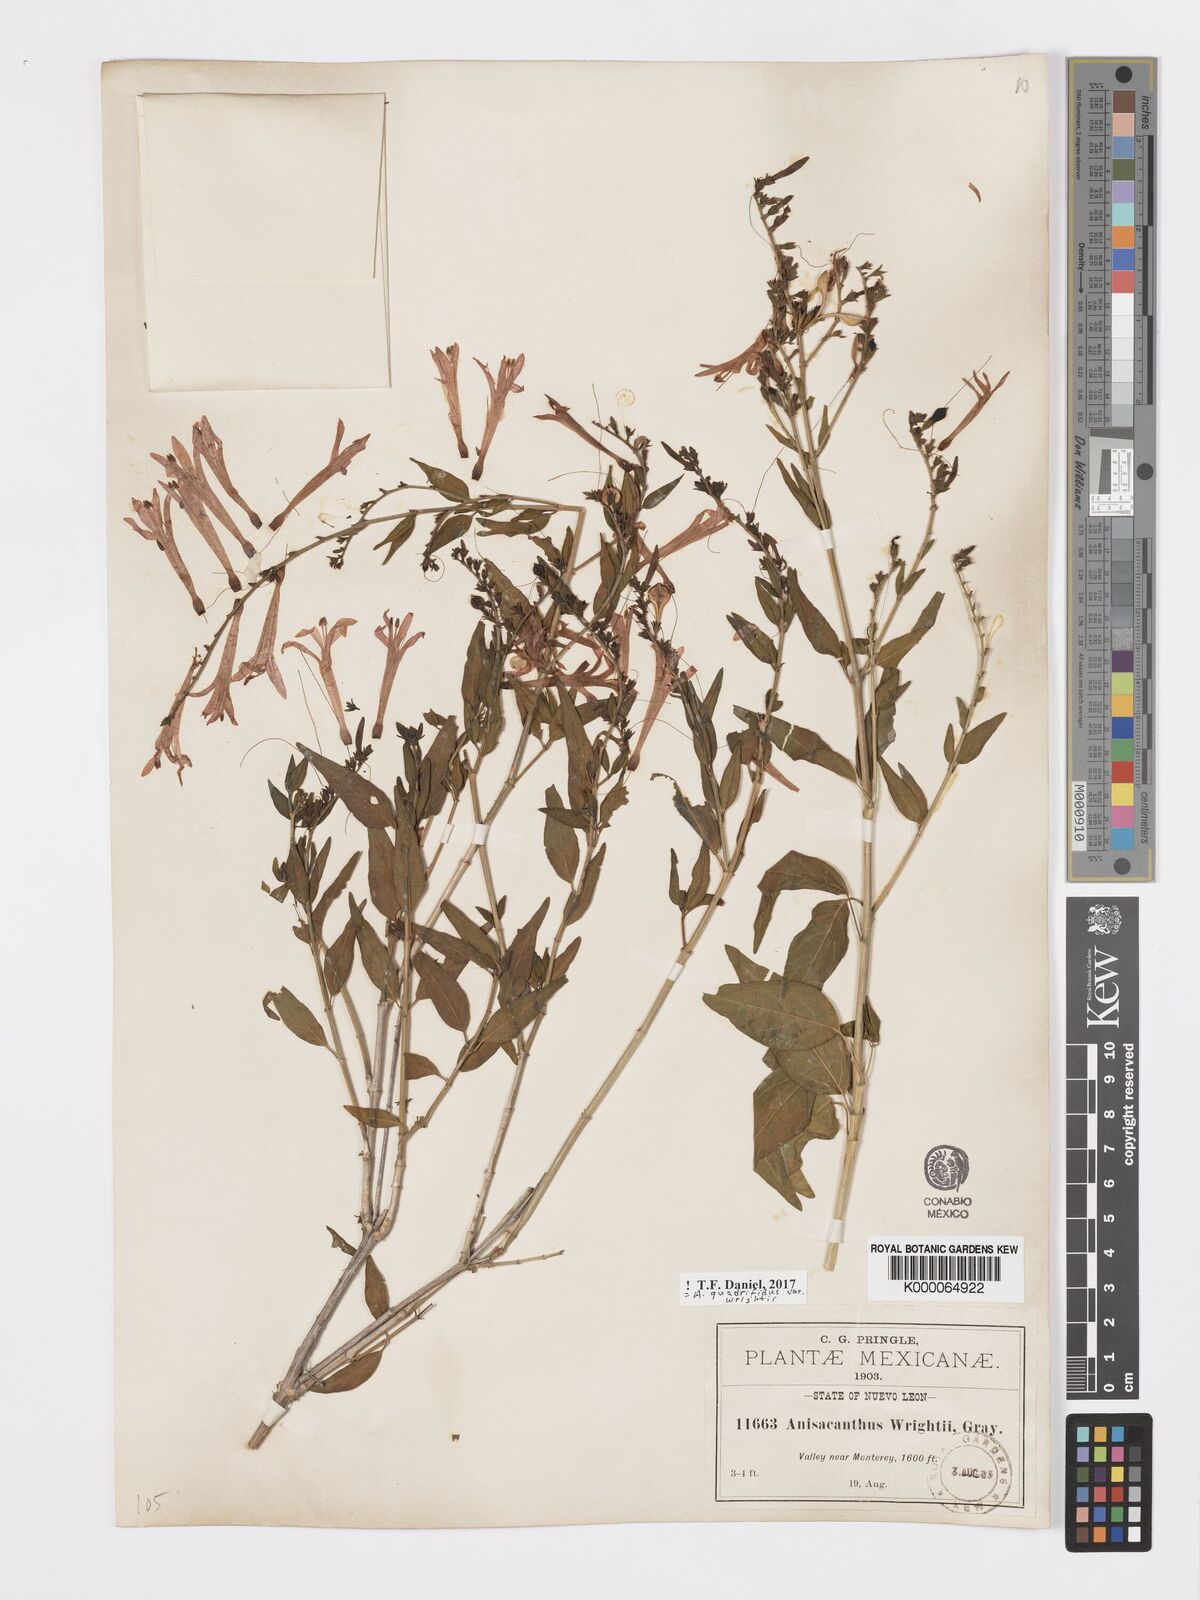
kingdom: Plantae
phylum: Tracheophyta
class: Magnoliopsida
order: Lamiales
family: Acanthaceae
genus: Anisacanthus
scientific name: Anisacanthus quadrifidus
